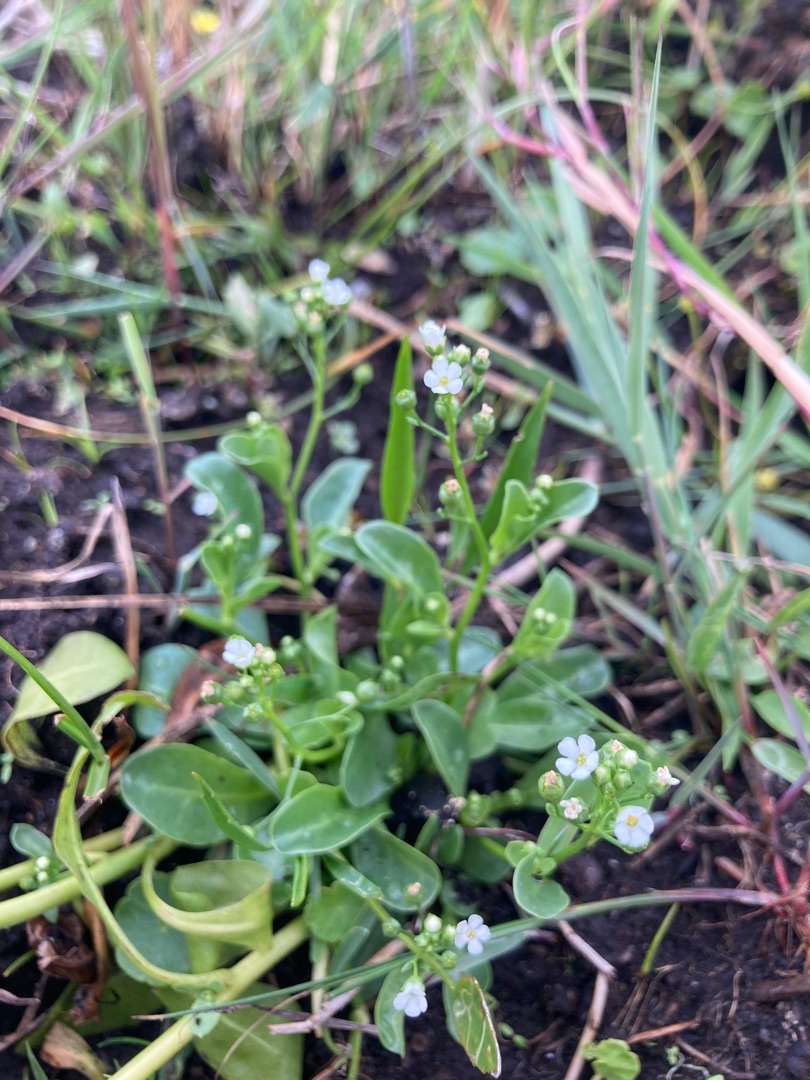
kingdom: Plantae
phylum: Tracheophyta
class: Magnoliopsida
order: Ericales
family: Primulaceae
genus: Samolus
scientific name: Samolus valerandi
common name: Samel
